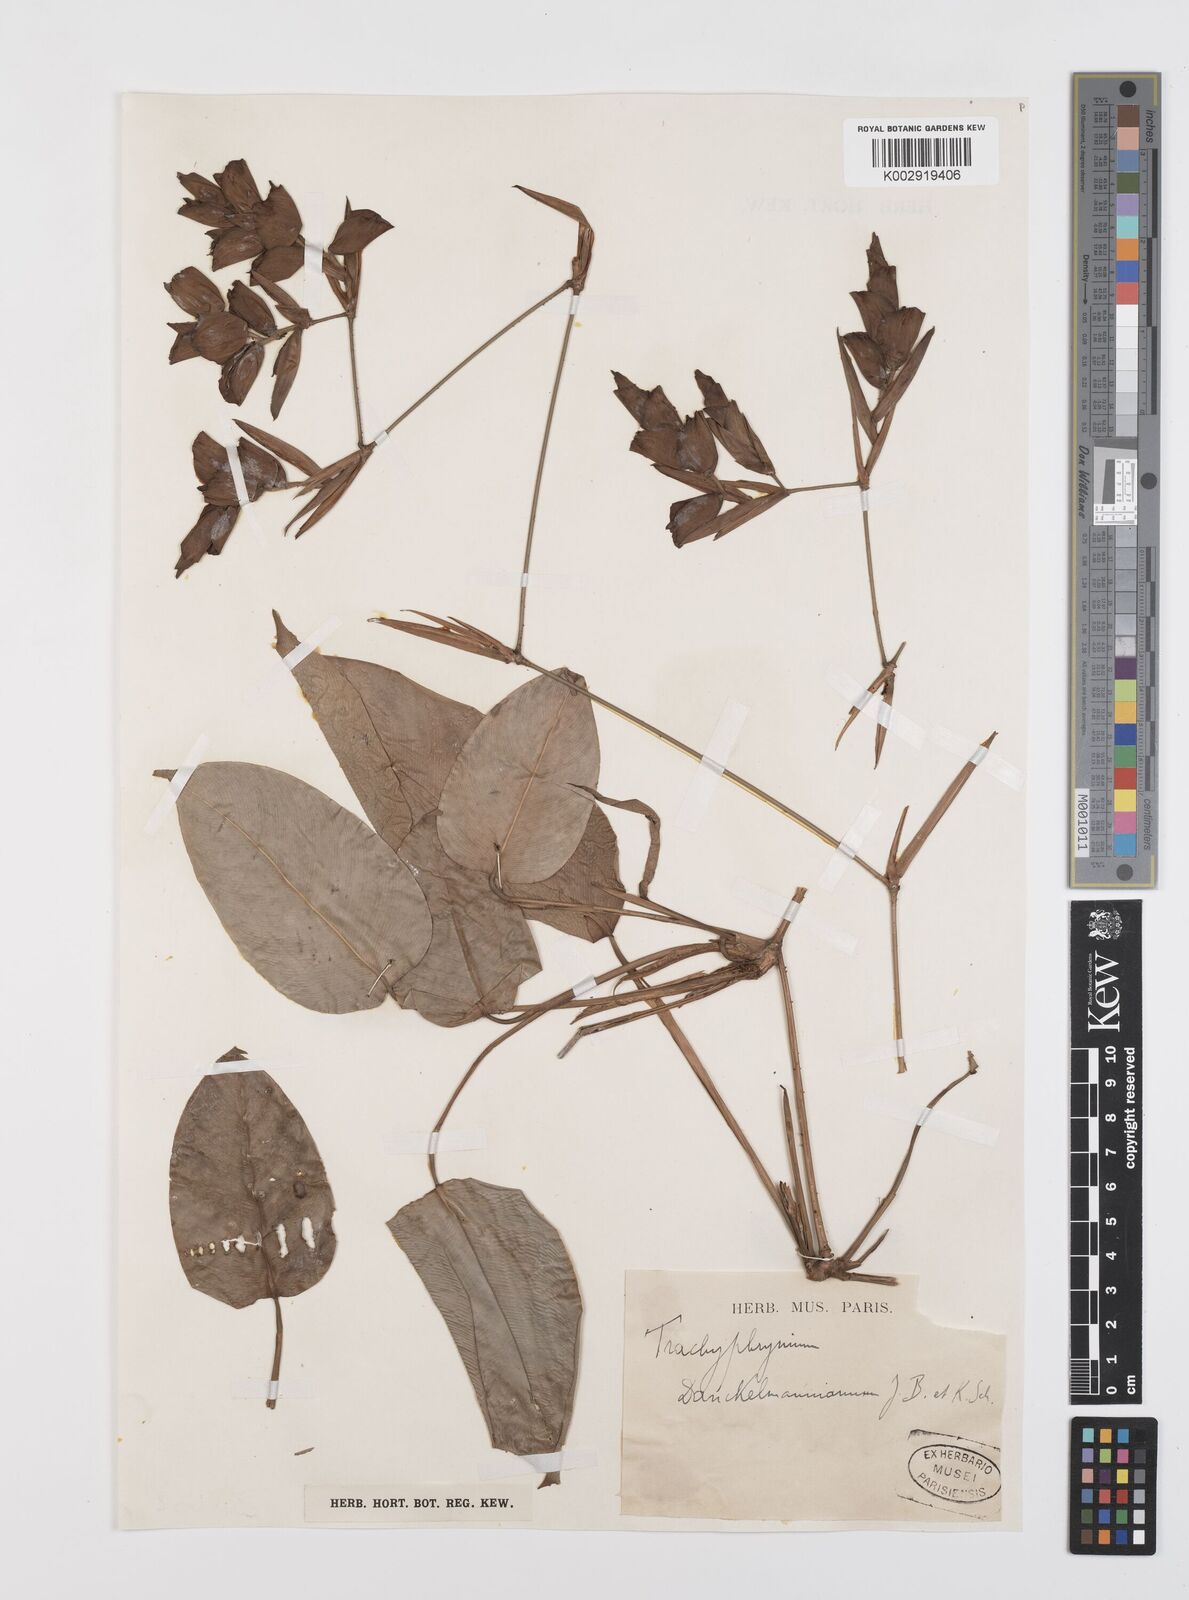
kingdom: Plantae
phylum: Tracheophyta
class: Liliopsida
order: Zingiberales
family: Marantaceae
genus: Haumania
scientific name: Haumania danckelmaniana
